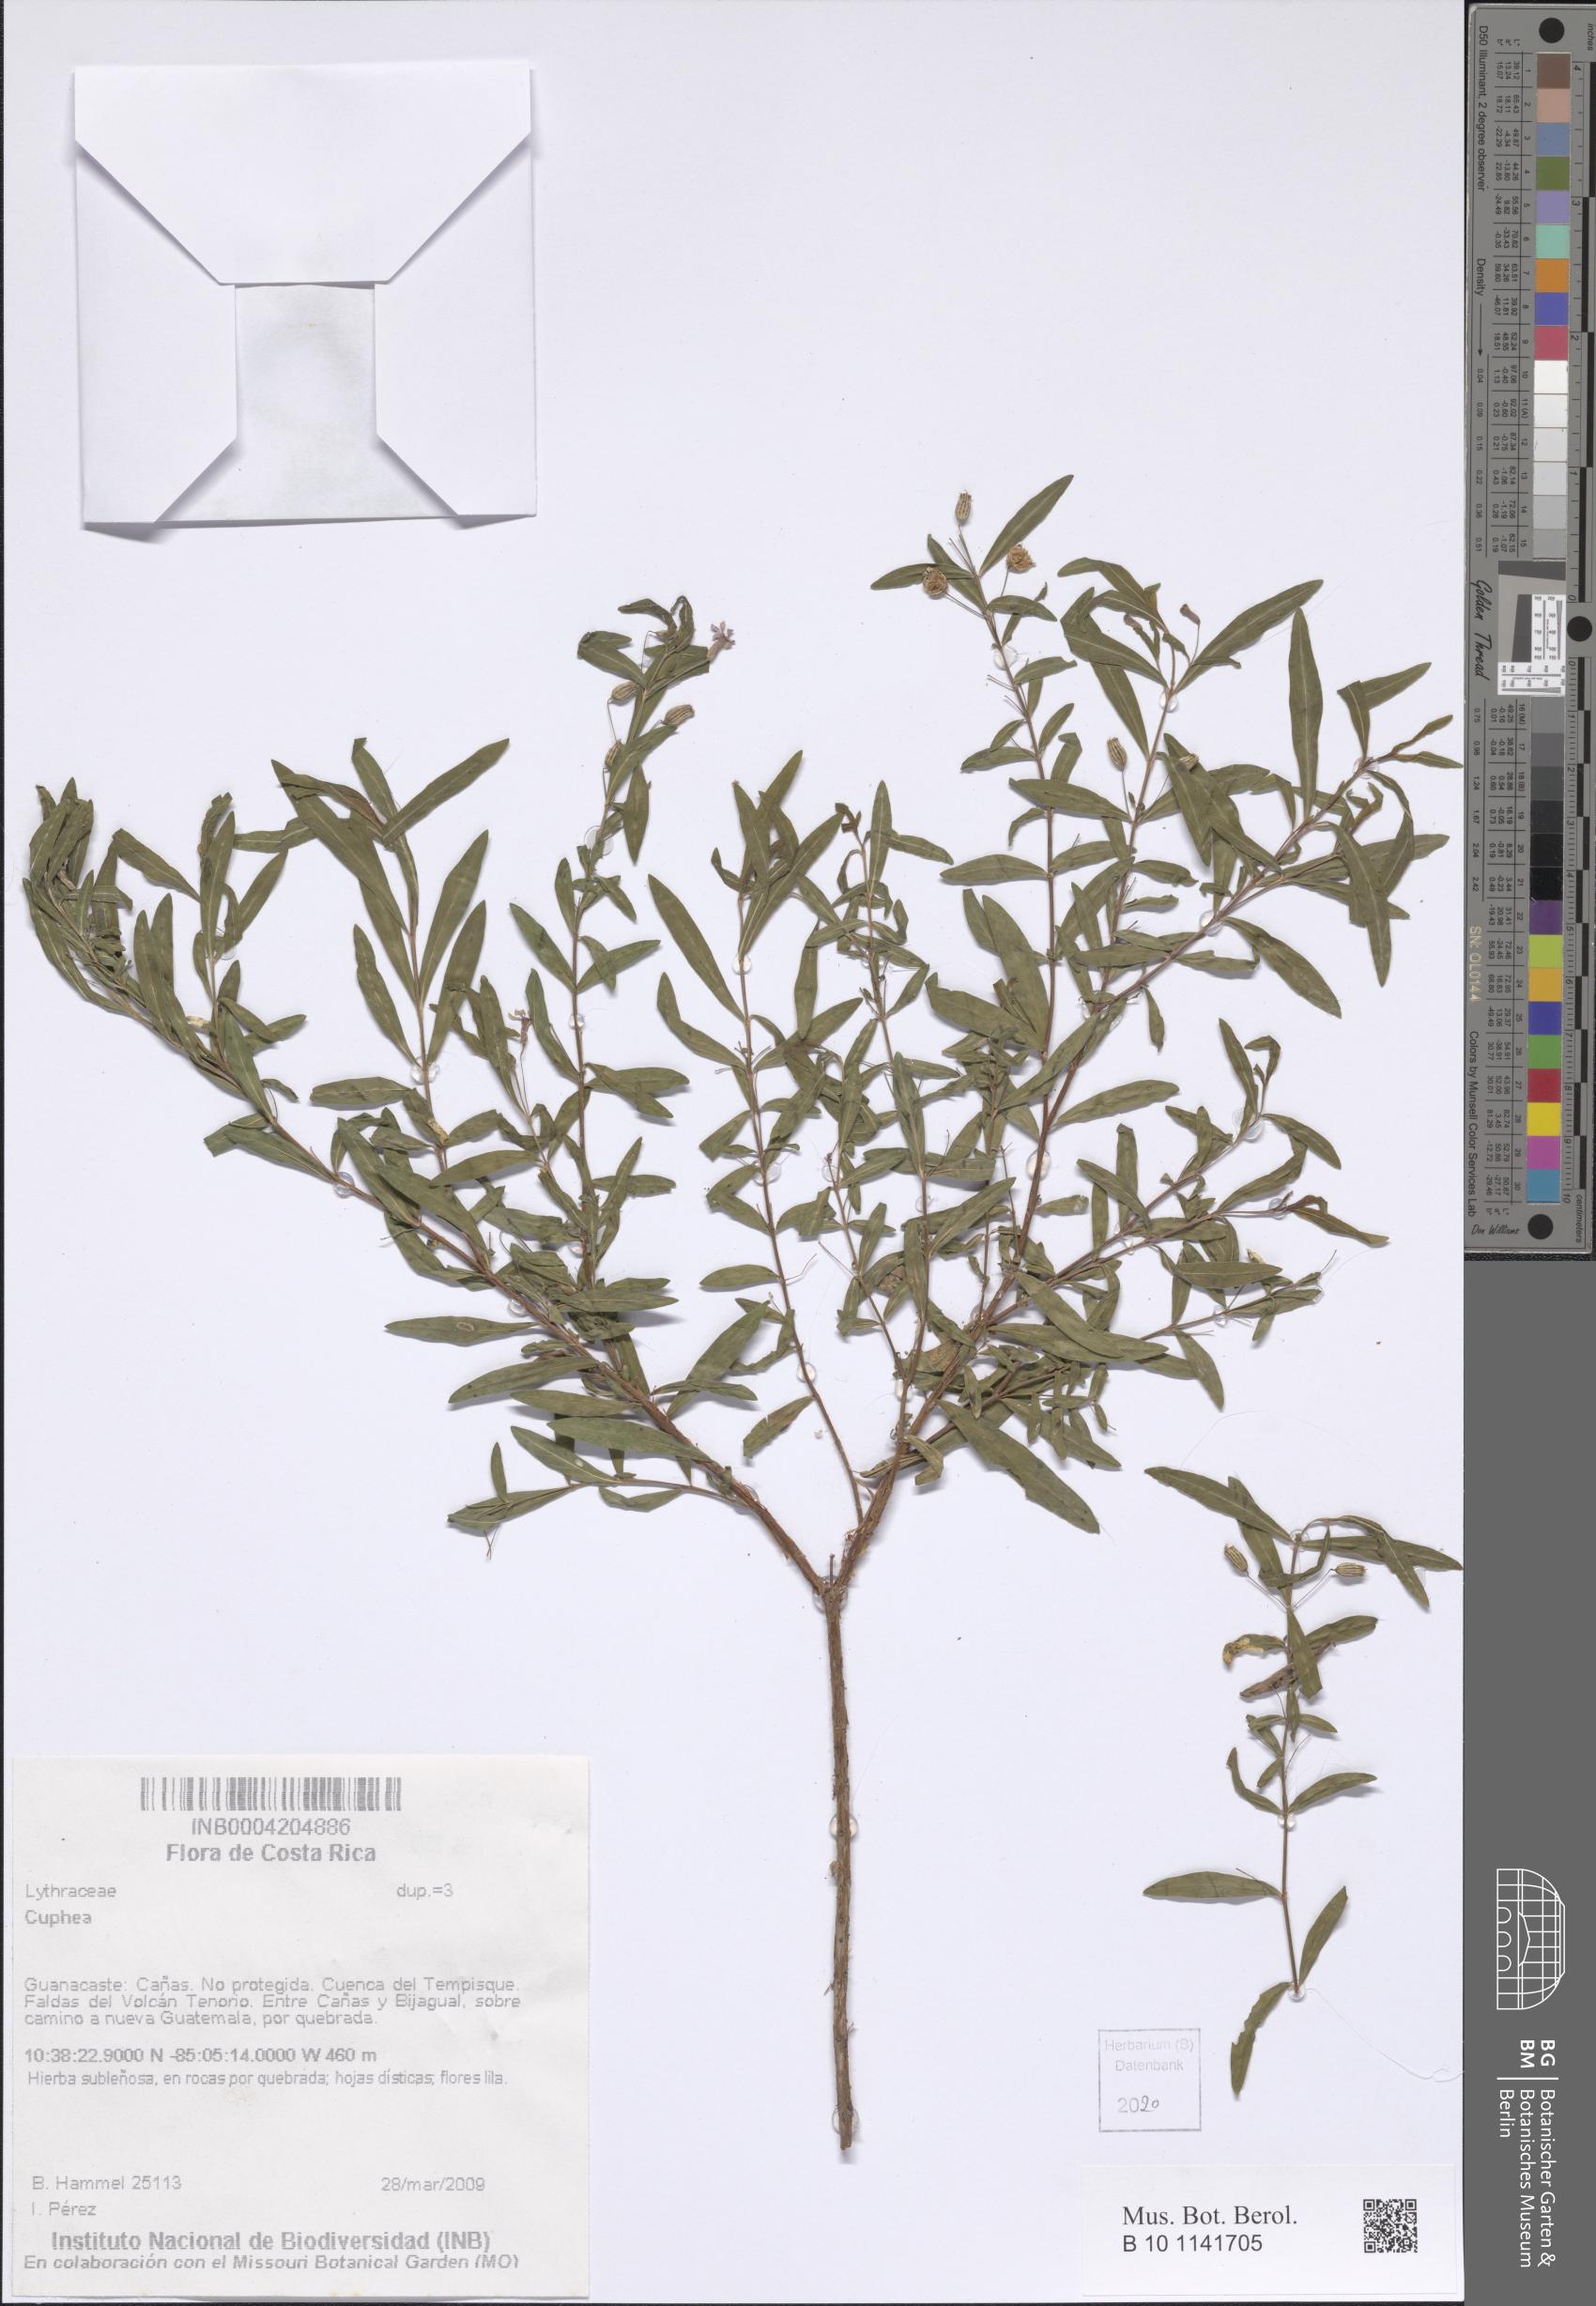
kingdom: Plantae
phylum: Tracheophyta
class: Magnoliopsida
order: Myrtales
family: Lythraceae
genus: Cuphea
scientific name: Cuphea
